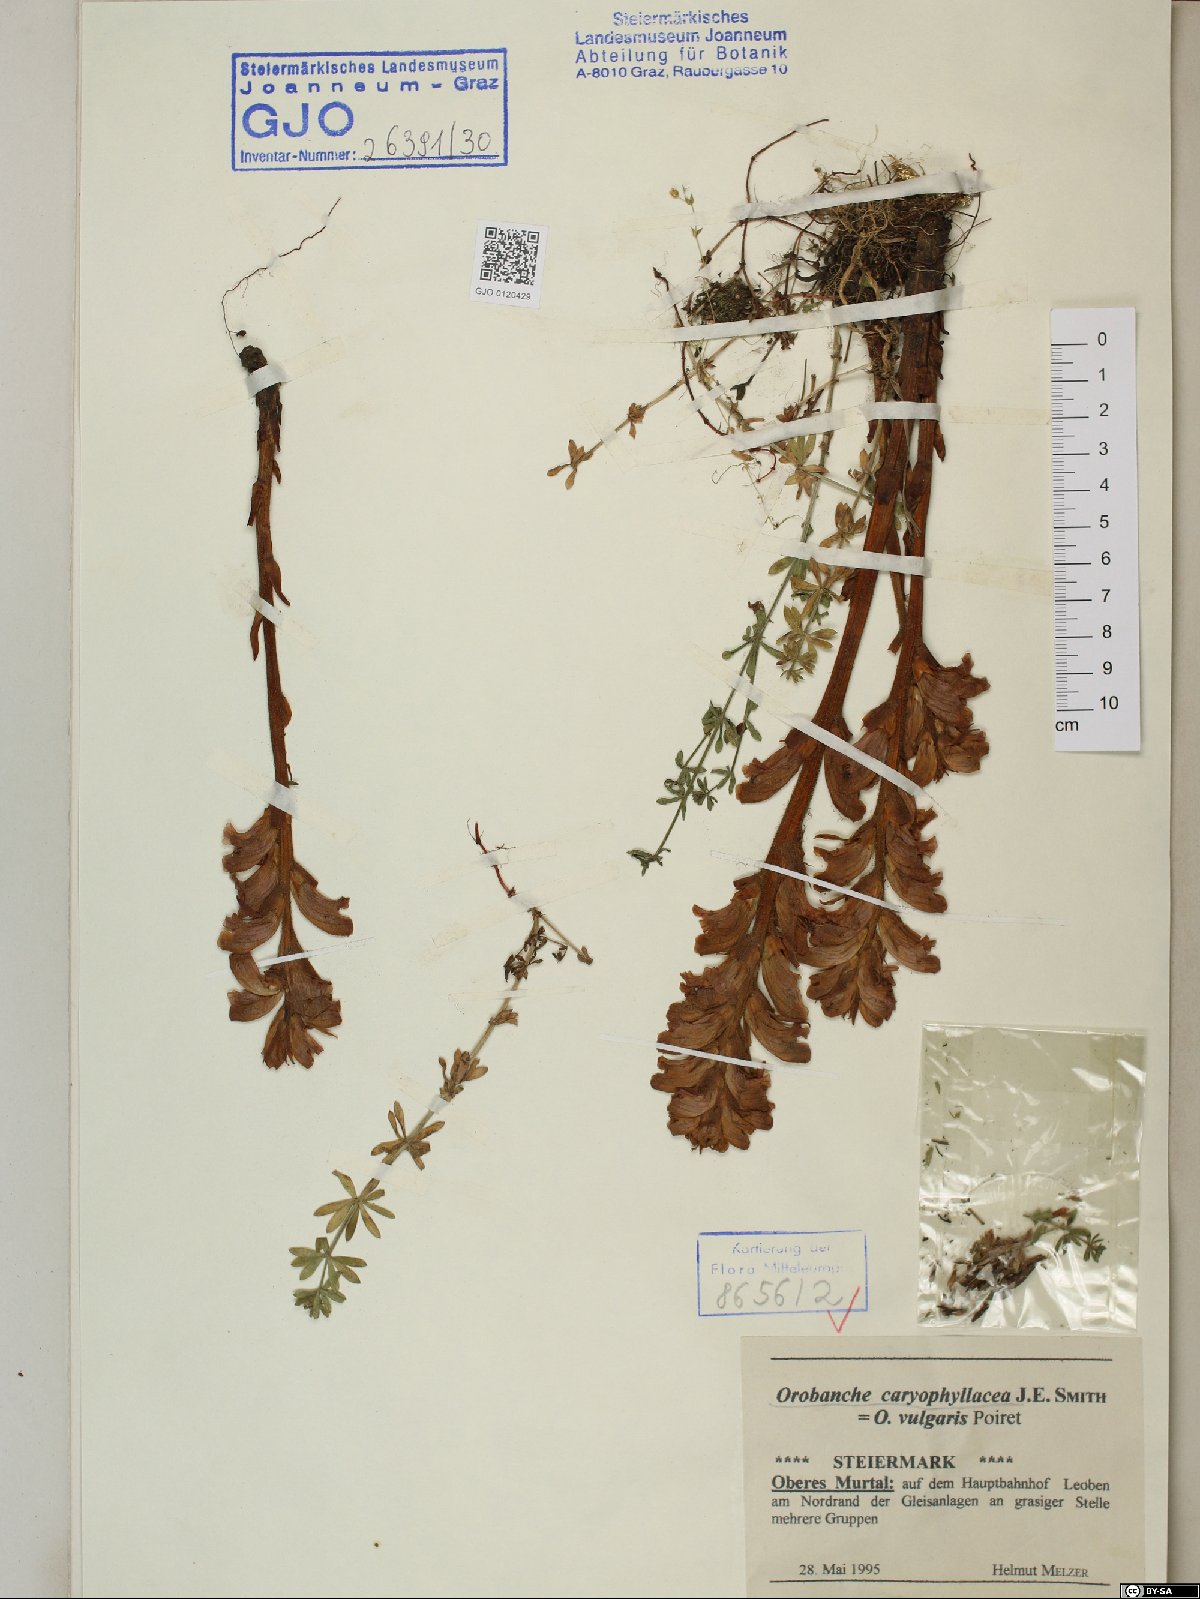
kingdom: Plantae
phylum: Tracheophyta
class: Magnoliopsida
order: Lamiales
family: Orobanchaceae
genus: Orobanche
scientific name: Orobanche caryophyllacea
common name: Bedstraw broomrape
